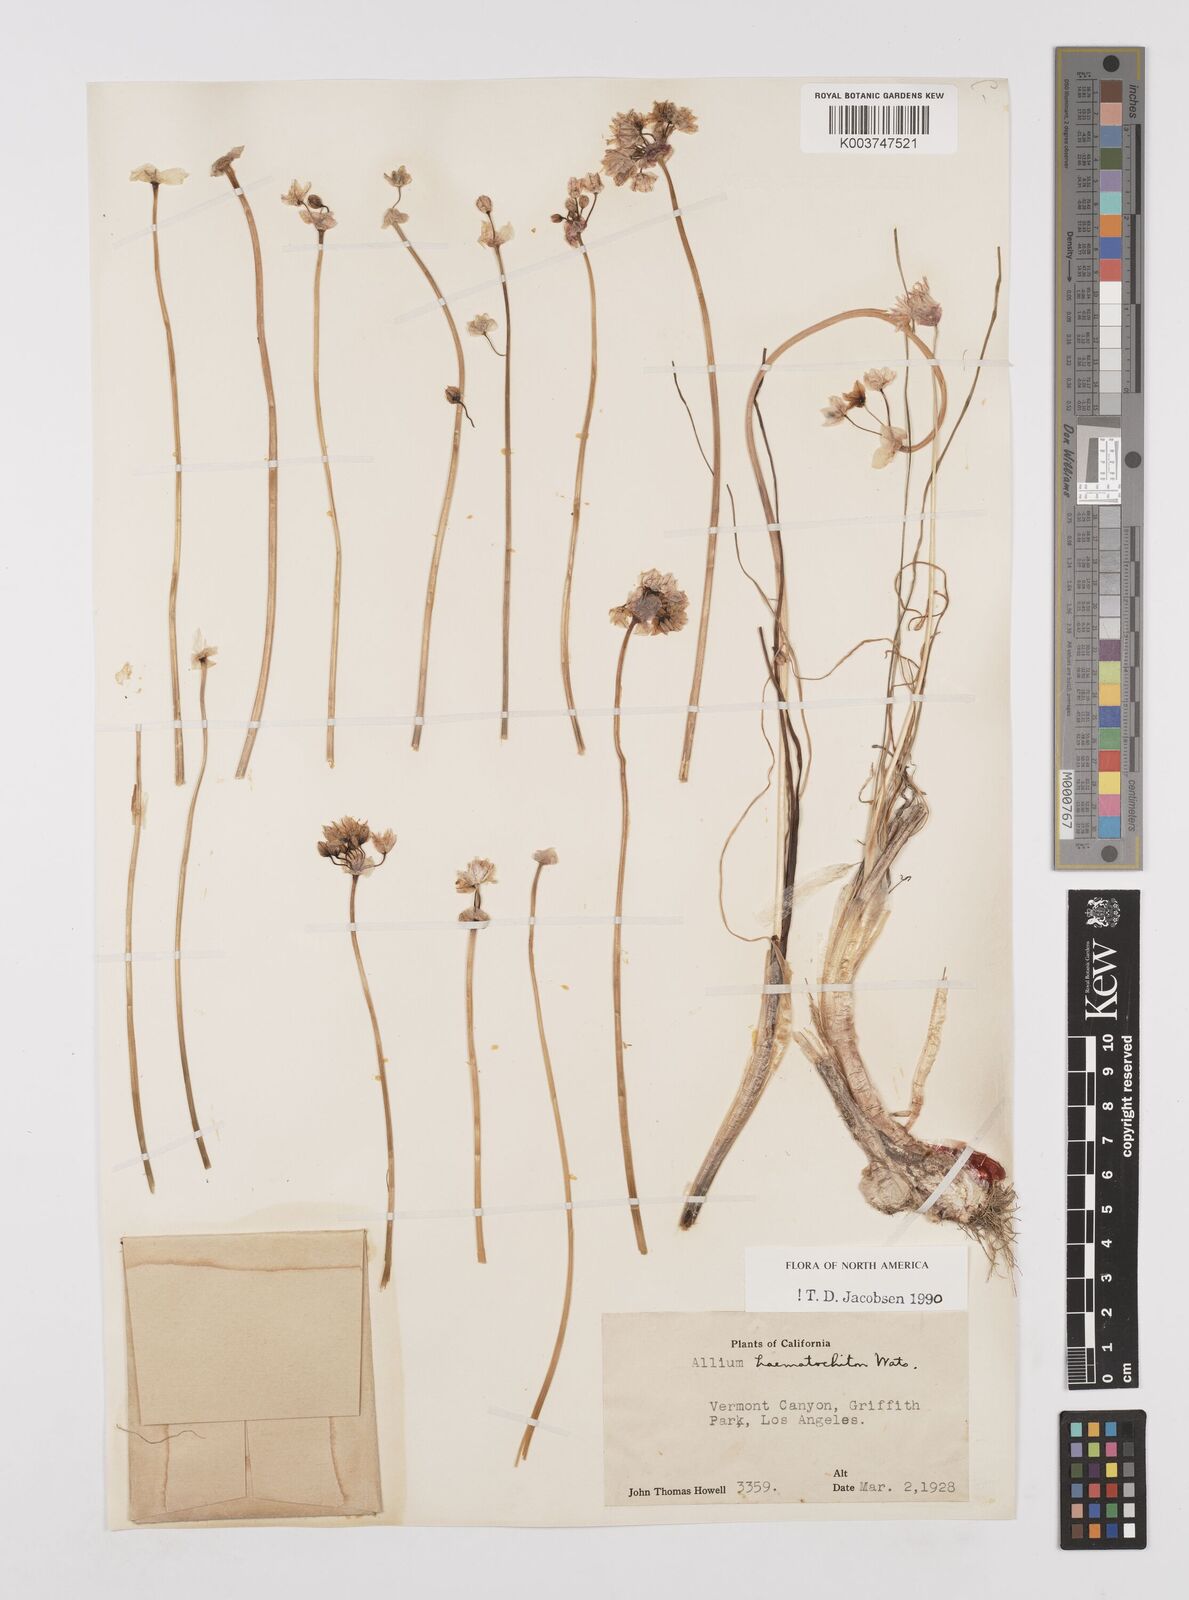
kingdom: Plantae
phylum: Tracheophyta
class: Liliopsida
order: Asparagales
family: Amaryllidaceae
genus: Allium
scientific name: Allium haematochiton
